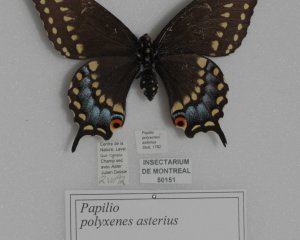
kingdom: Animalia
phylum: Arthropoda
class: Insecta
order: Lepidoptera
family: Papilionidae
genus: Papilio
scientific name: Papilio polyxenes
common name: Black Swallowtail
